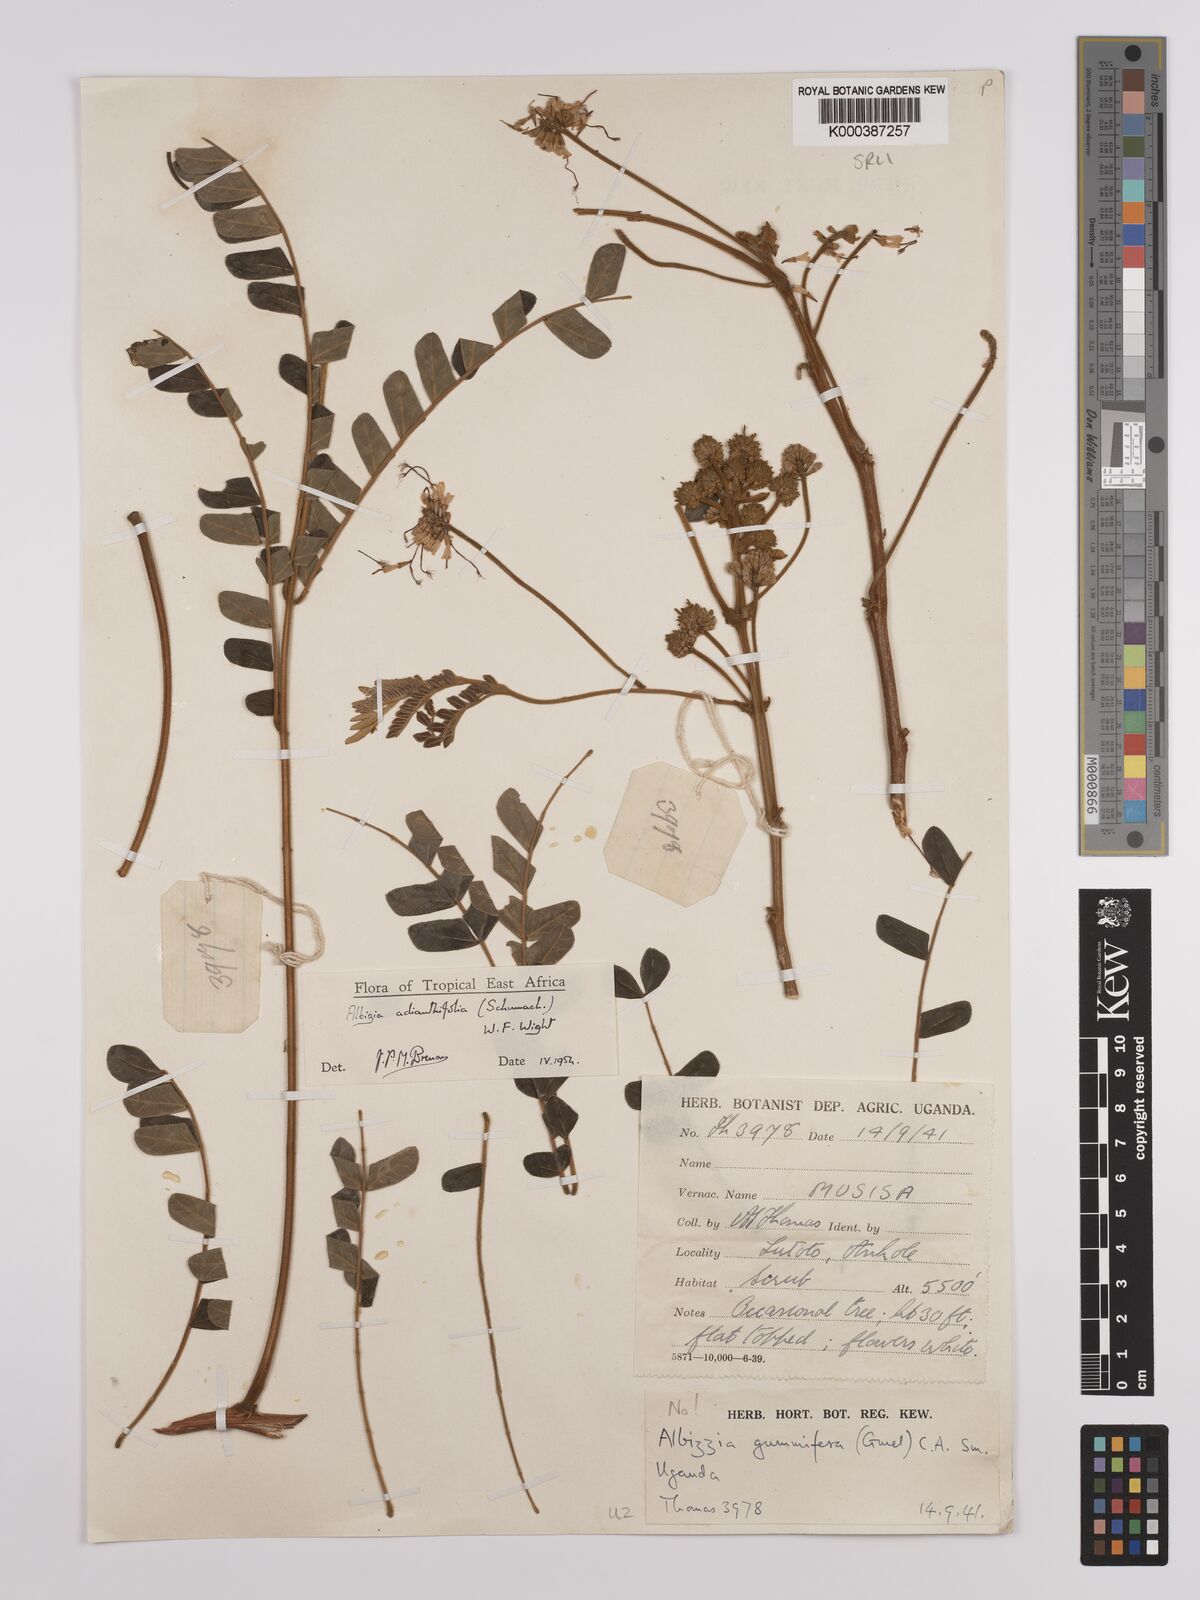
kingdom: Plantae
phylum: Tracheophyta
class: Magnoliopsida
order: Fabales
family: Fabaceae
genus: Albizia
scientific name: Albizia adianthifolia
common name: West african albizia
